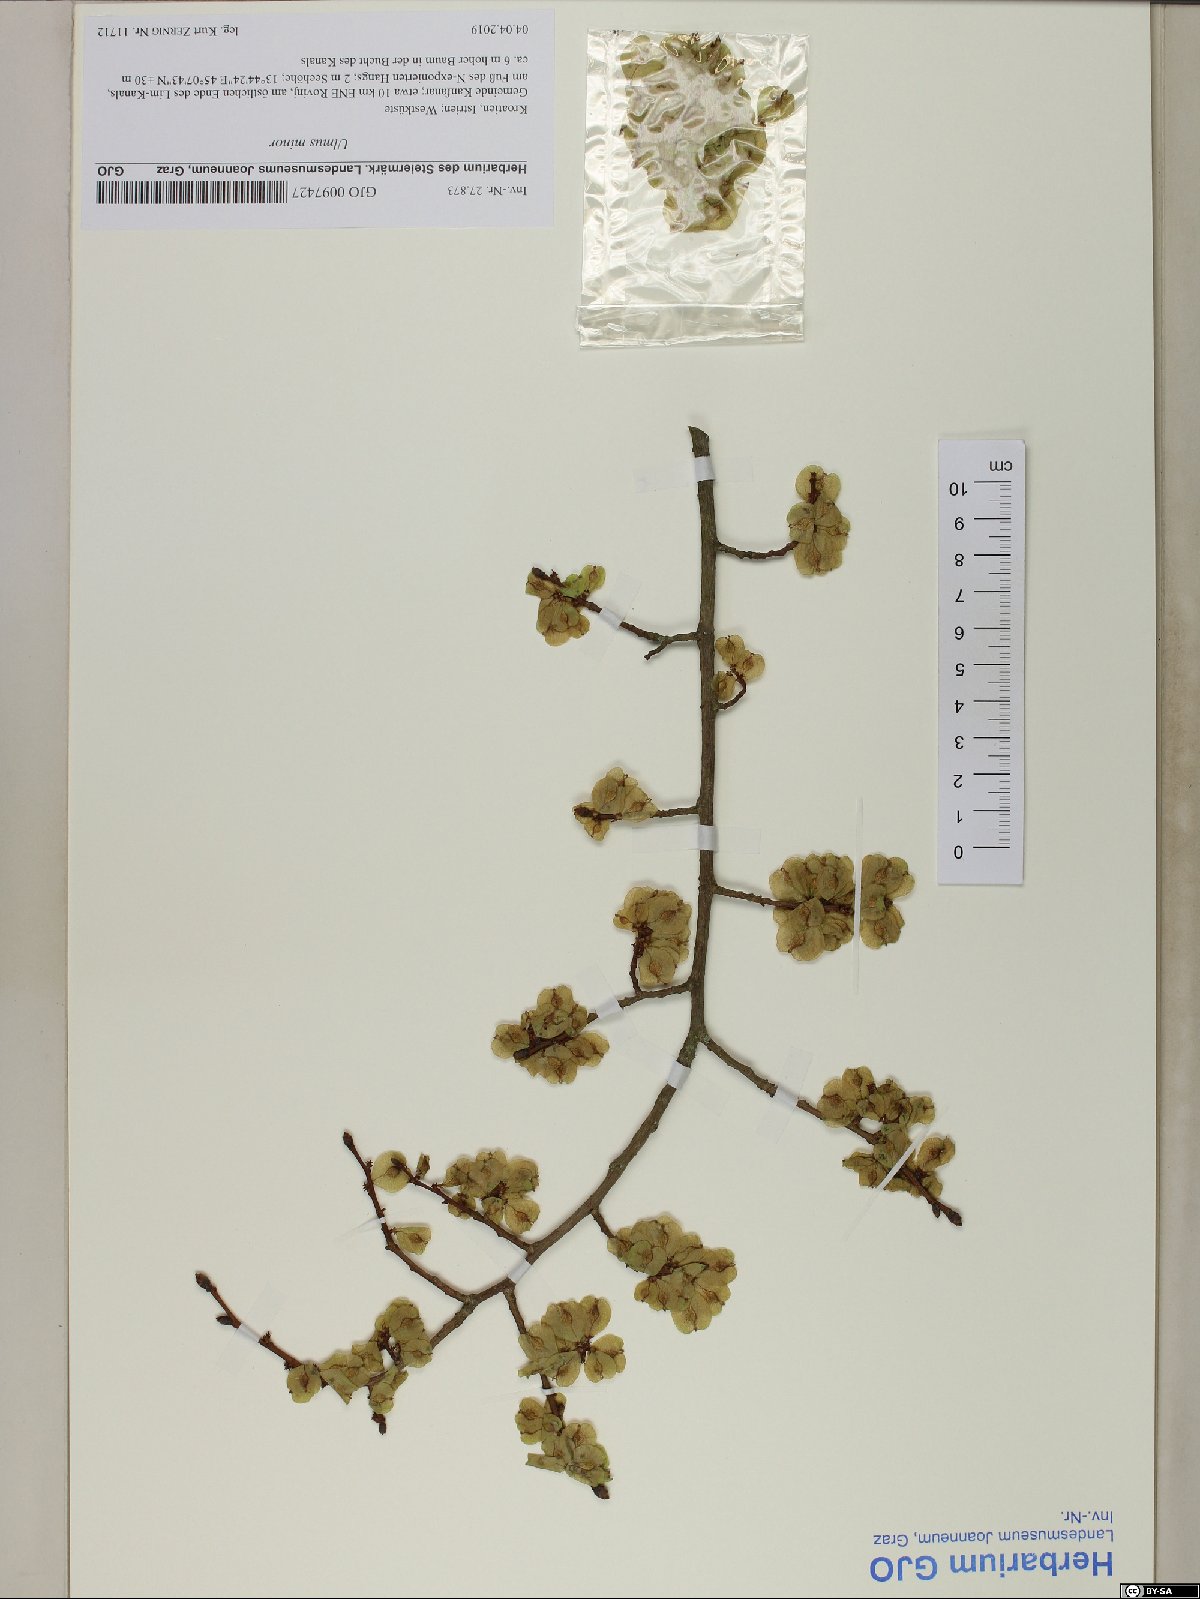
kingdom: Plantae
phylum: Tracheophyta
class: Magnoliopsida
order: Rosales
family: Ulmaceae
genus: Ulmus
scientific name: Ulmus minor
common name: Small-leaved elm
